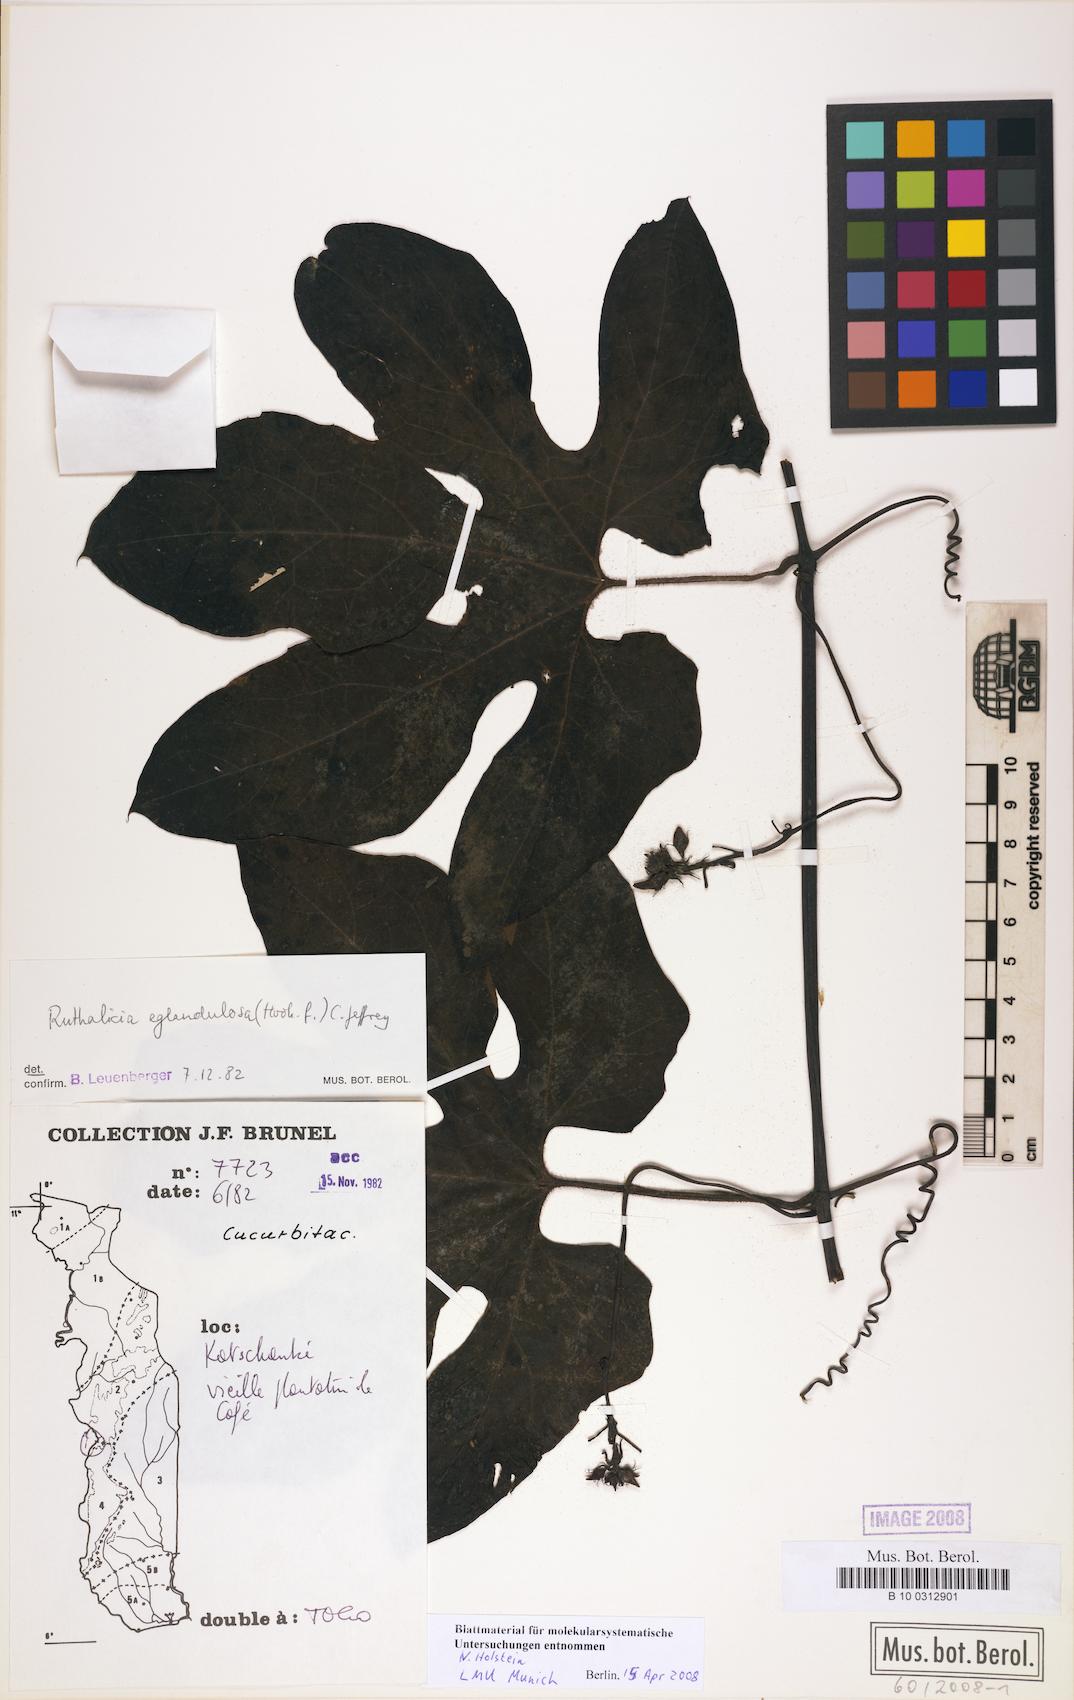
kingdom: Plantae
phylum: Tracheophyta
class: Magnoliopsida
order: Cucurbitales
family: Cucurbitaceae
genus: Ruthalicia
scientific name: Ruthalicia eglandulosa
